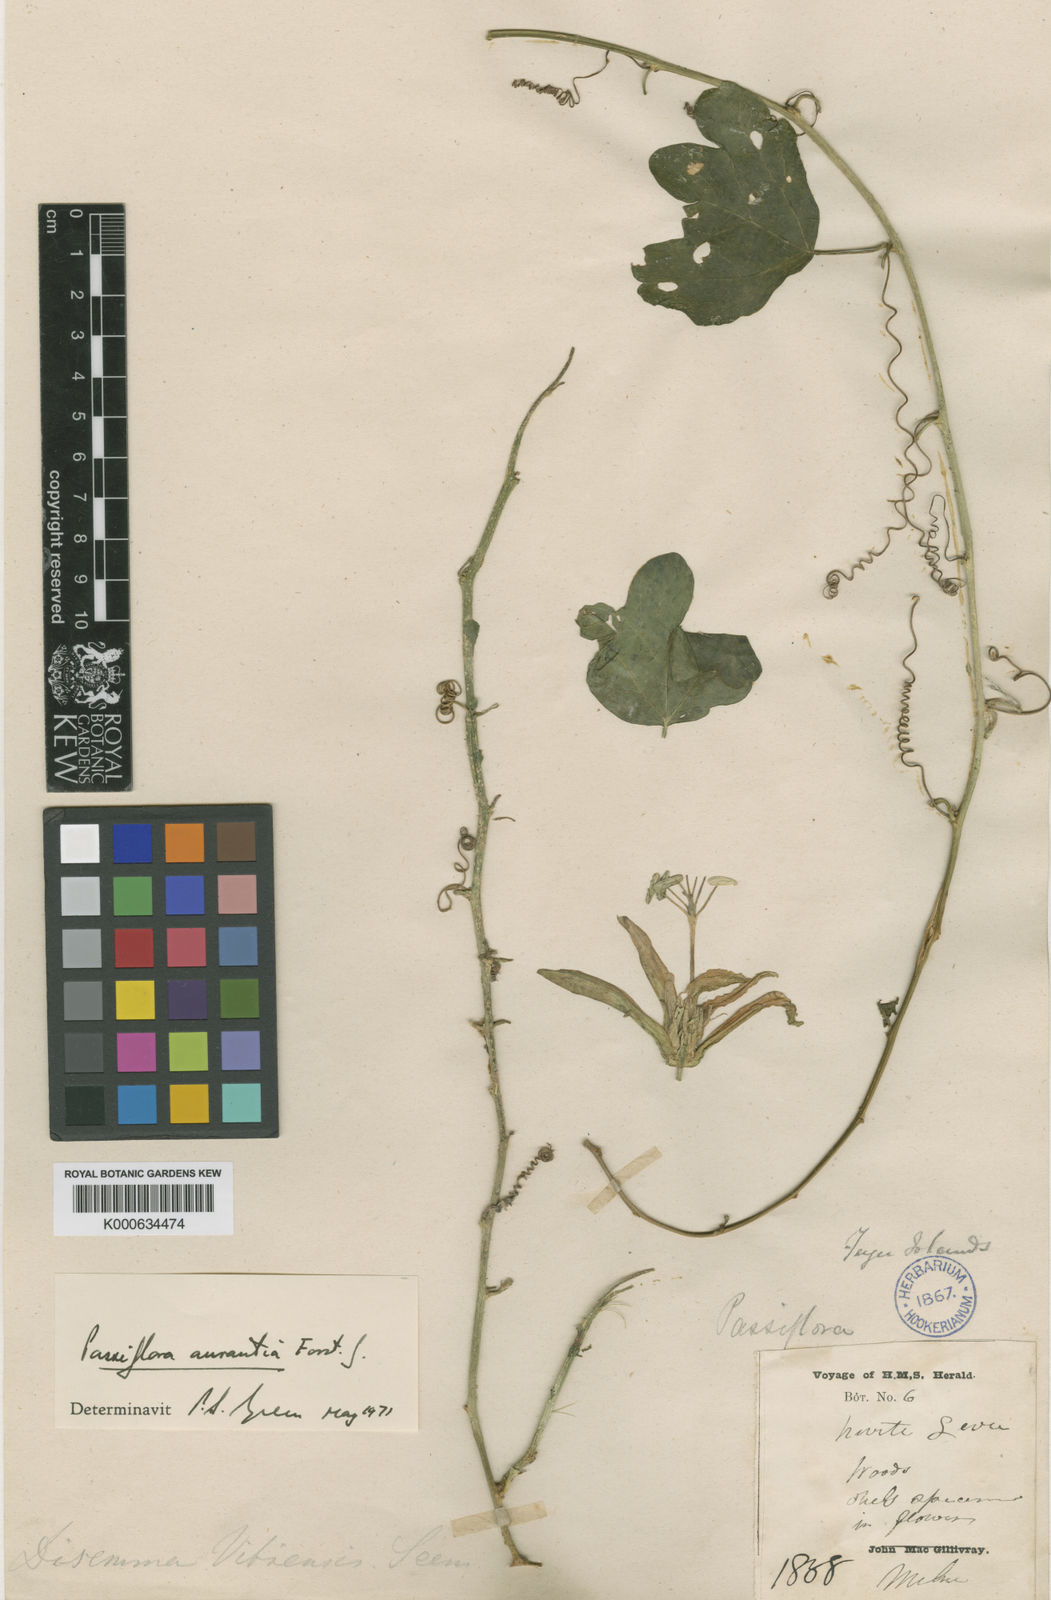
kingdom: Plantae
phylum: Tracheophyta
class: Magnoliopsida
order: Malpighiales
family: Passifloraceae
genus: Passiflora
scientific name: Passiflora aurantia
